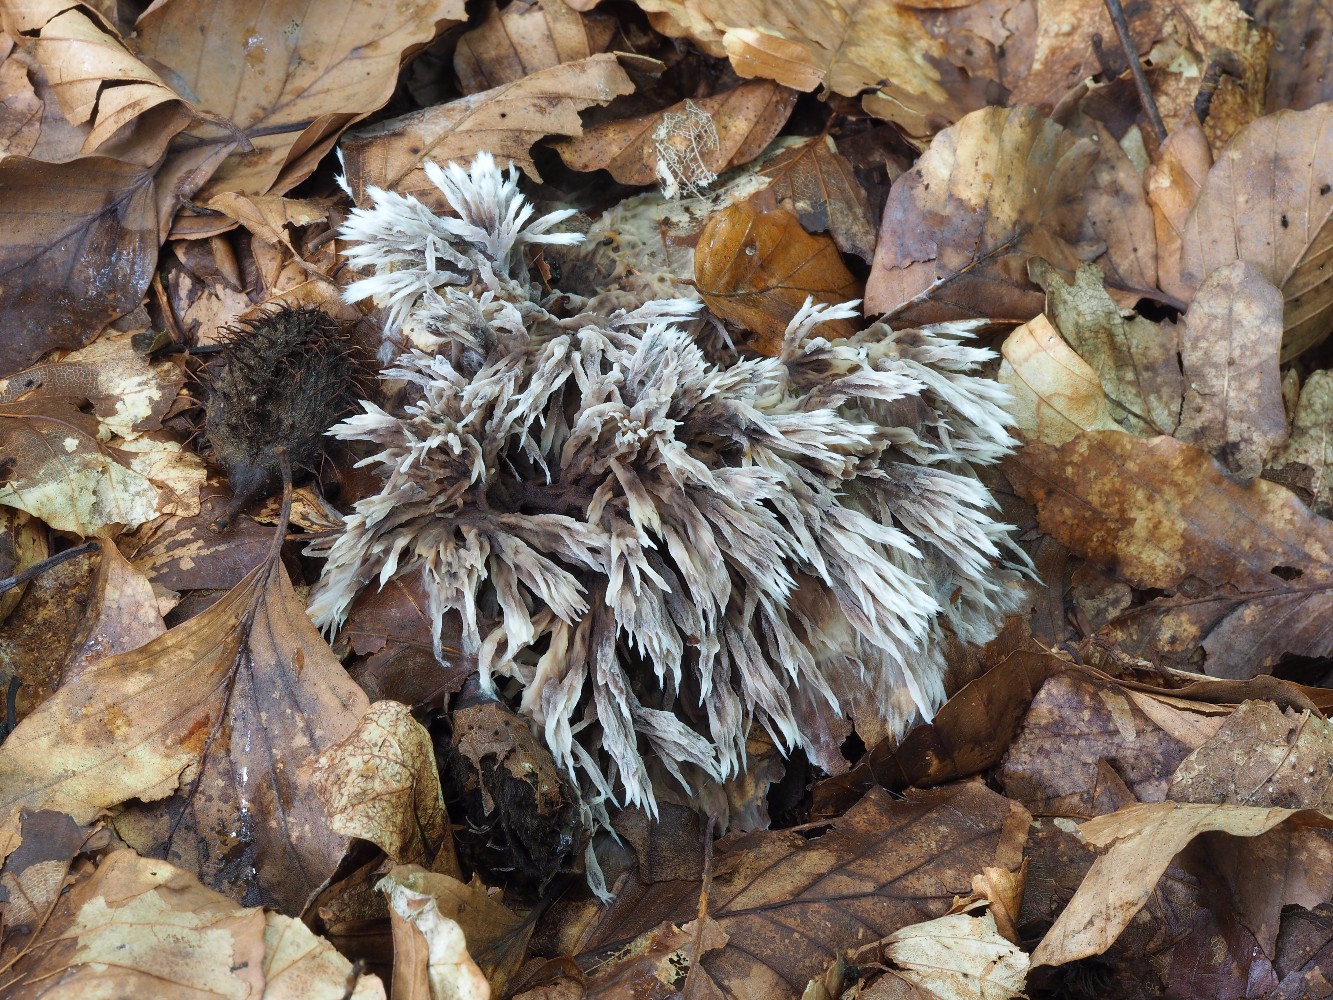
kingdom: Fungi
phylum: Basidiomycota
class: Agaricomycetes
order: Thelephorales
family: Thelephoraceae
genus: Thelephora
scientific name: Thelephora penicillata
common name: fladtrådt frynsesvamp
